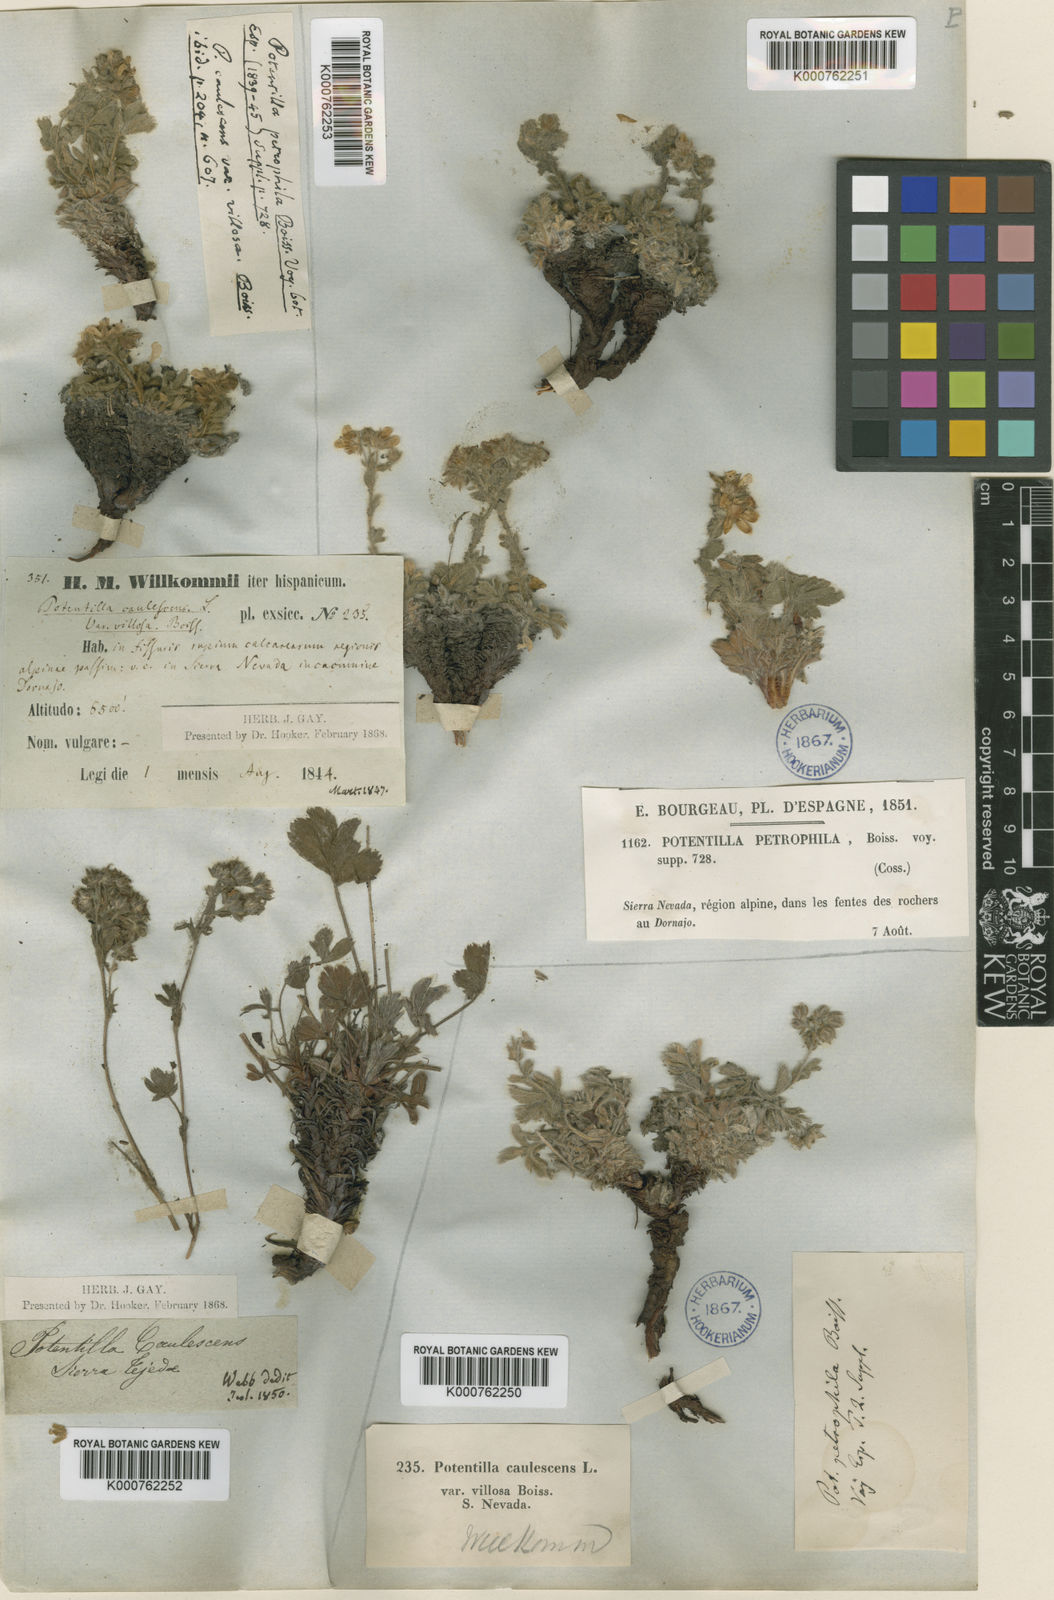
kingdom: Plantae
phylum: Tracheophyta
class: Magnoliopsida
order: Rosales
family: Rosaceae
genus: Potentilla
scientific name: Potentilla caulescens
